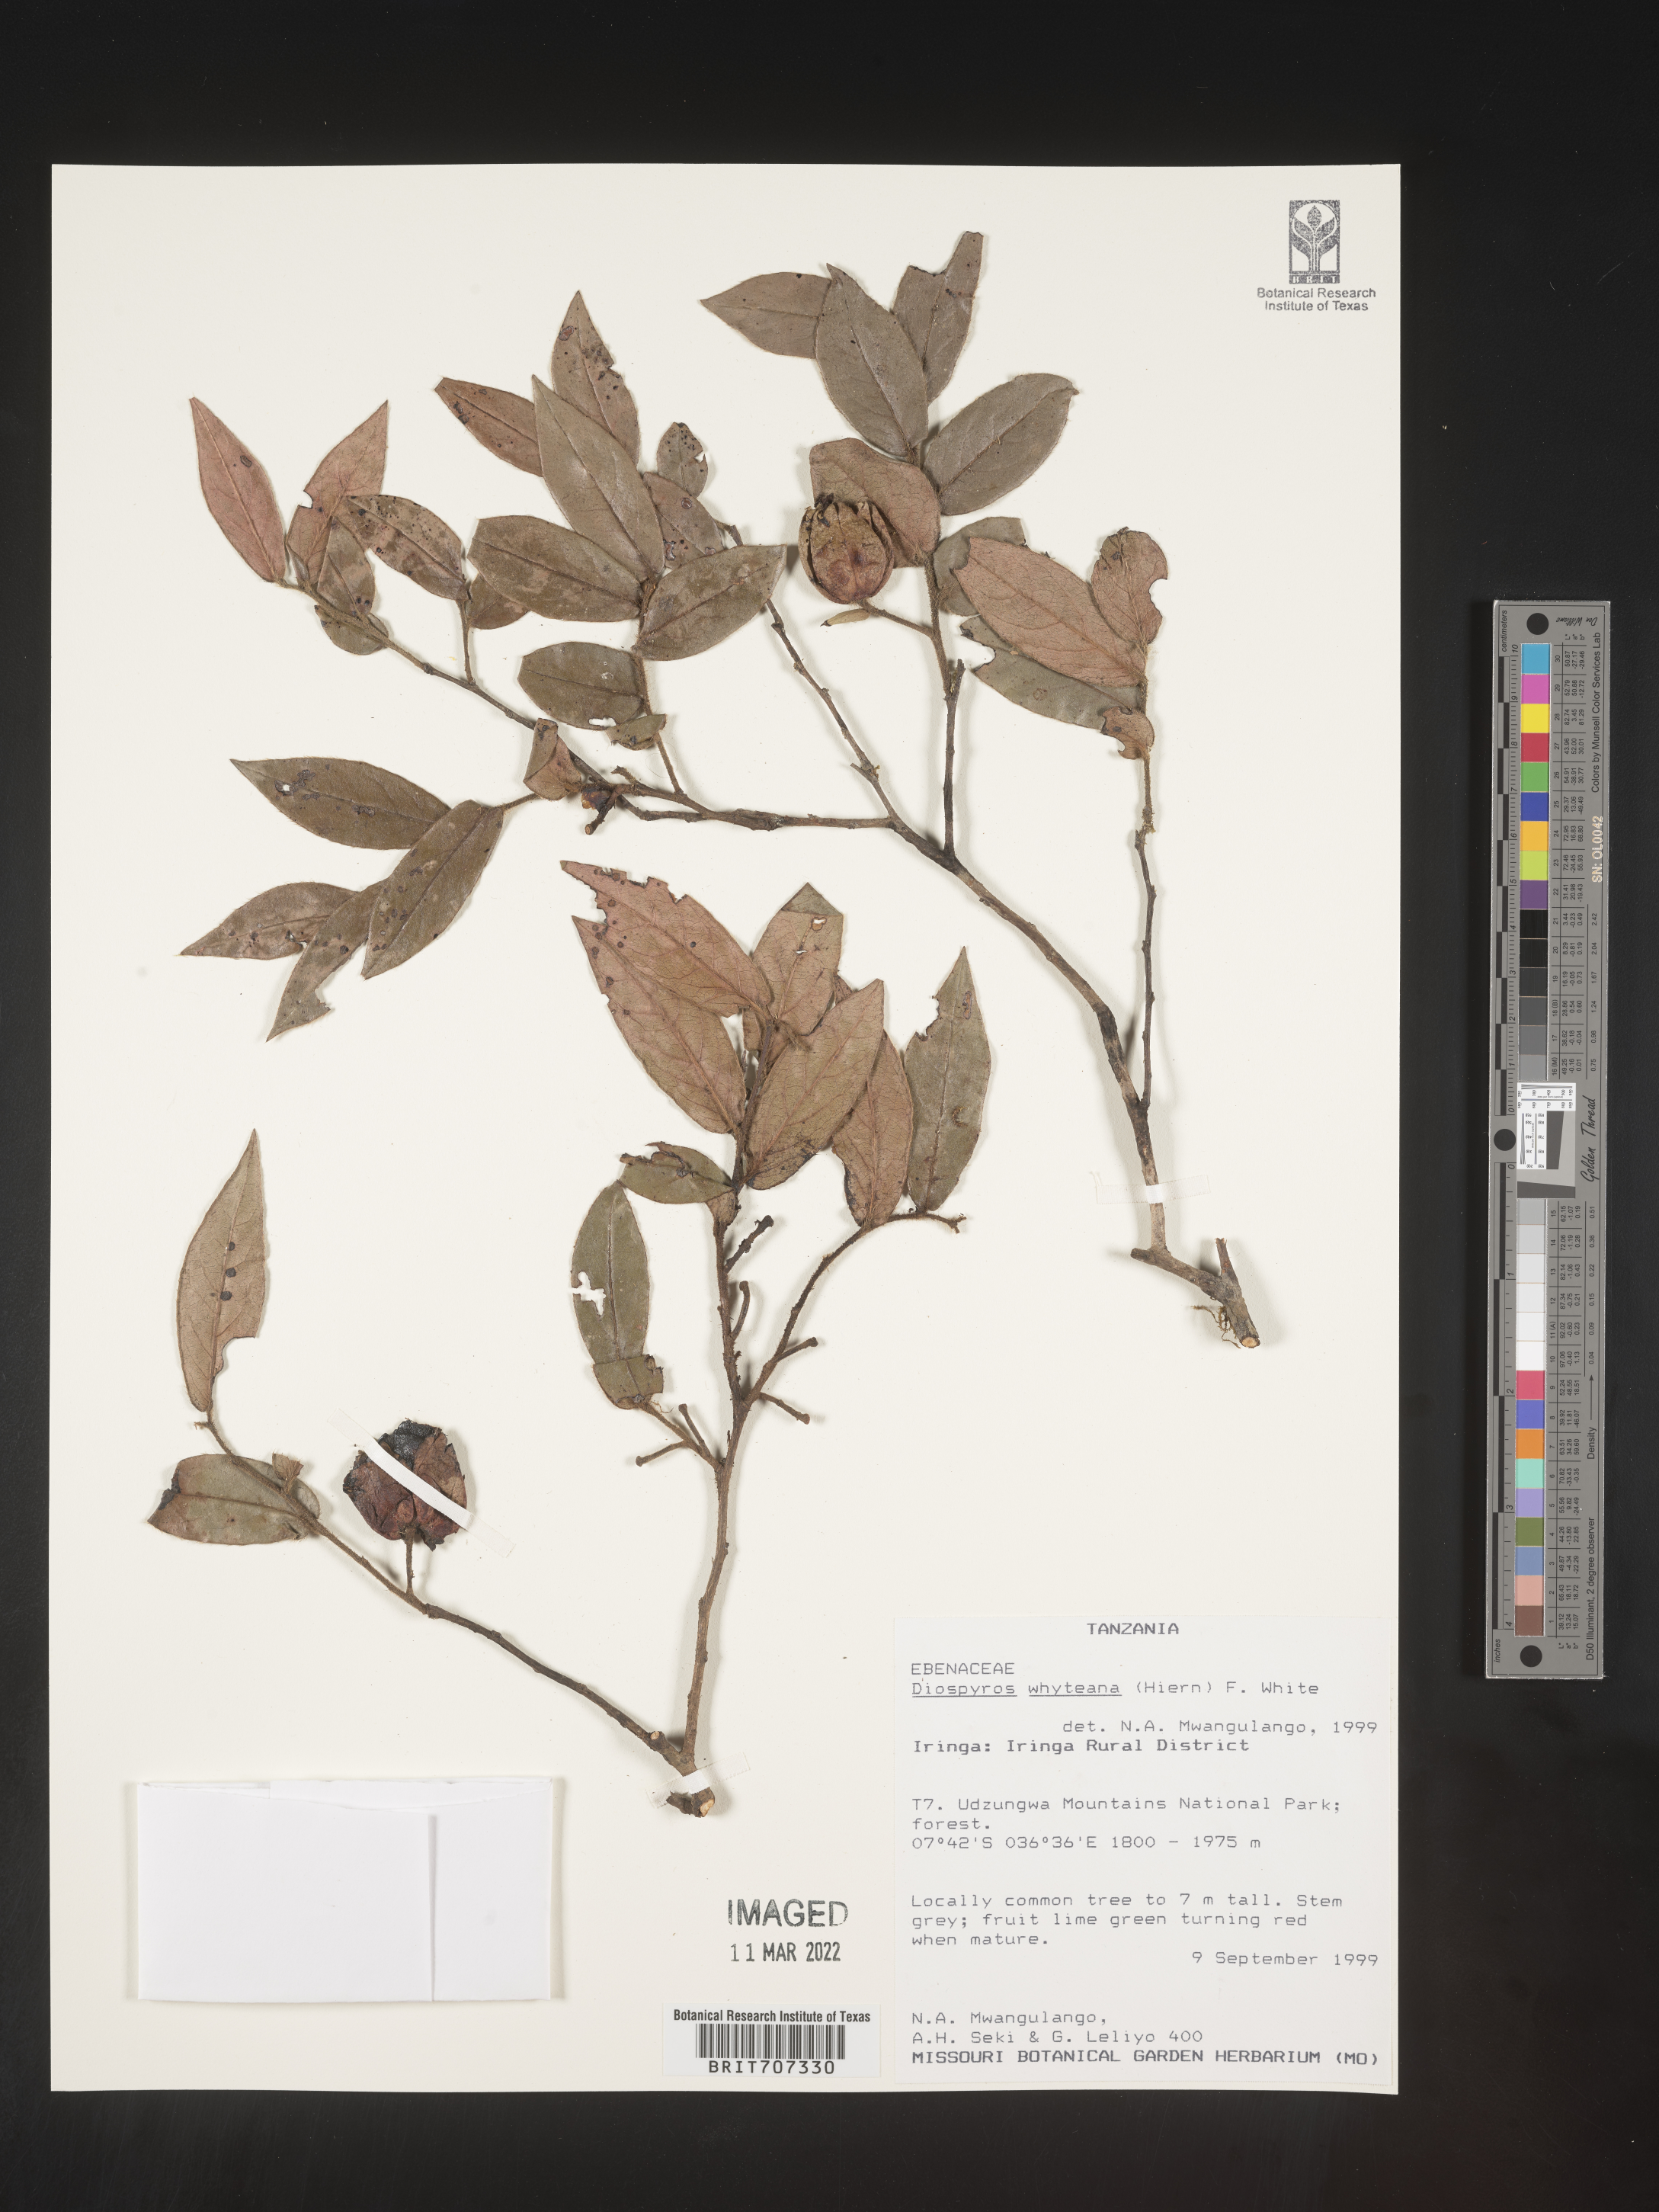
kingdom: Plantae
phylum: Tracheophyta
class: Magnoliopsida
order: Ericales
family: Ebenaceae
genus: Diospyros
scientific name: Diospyros
